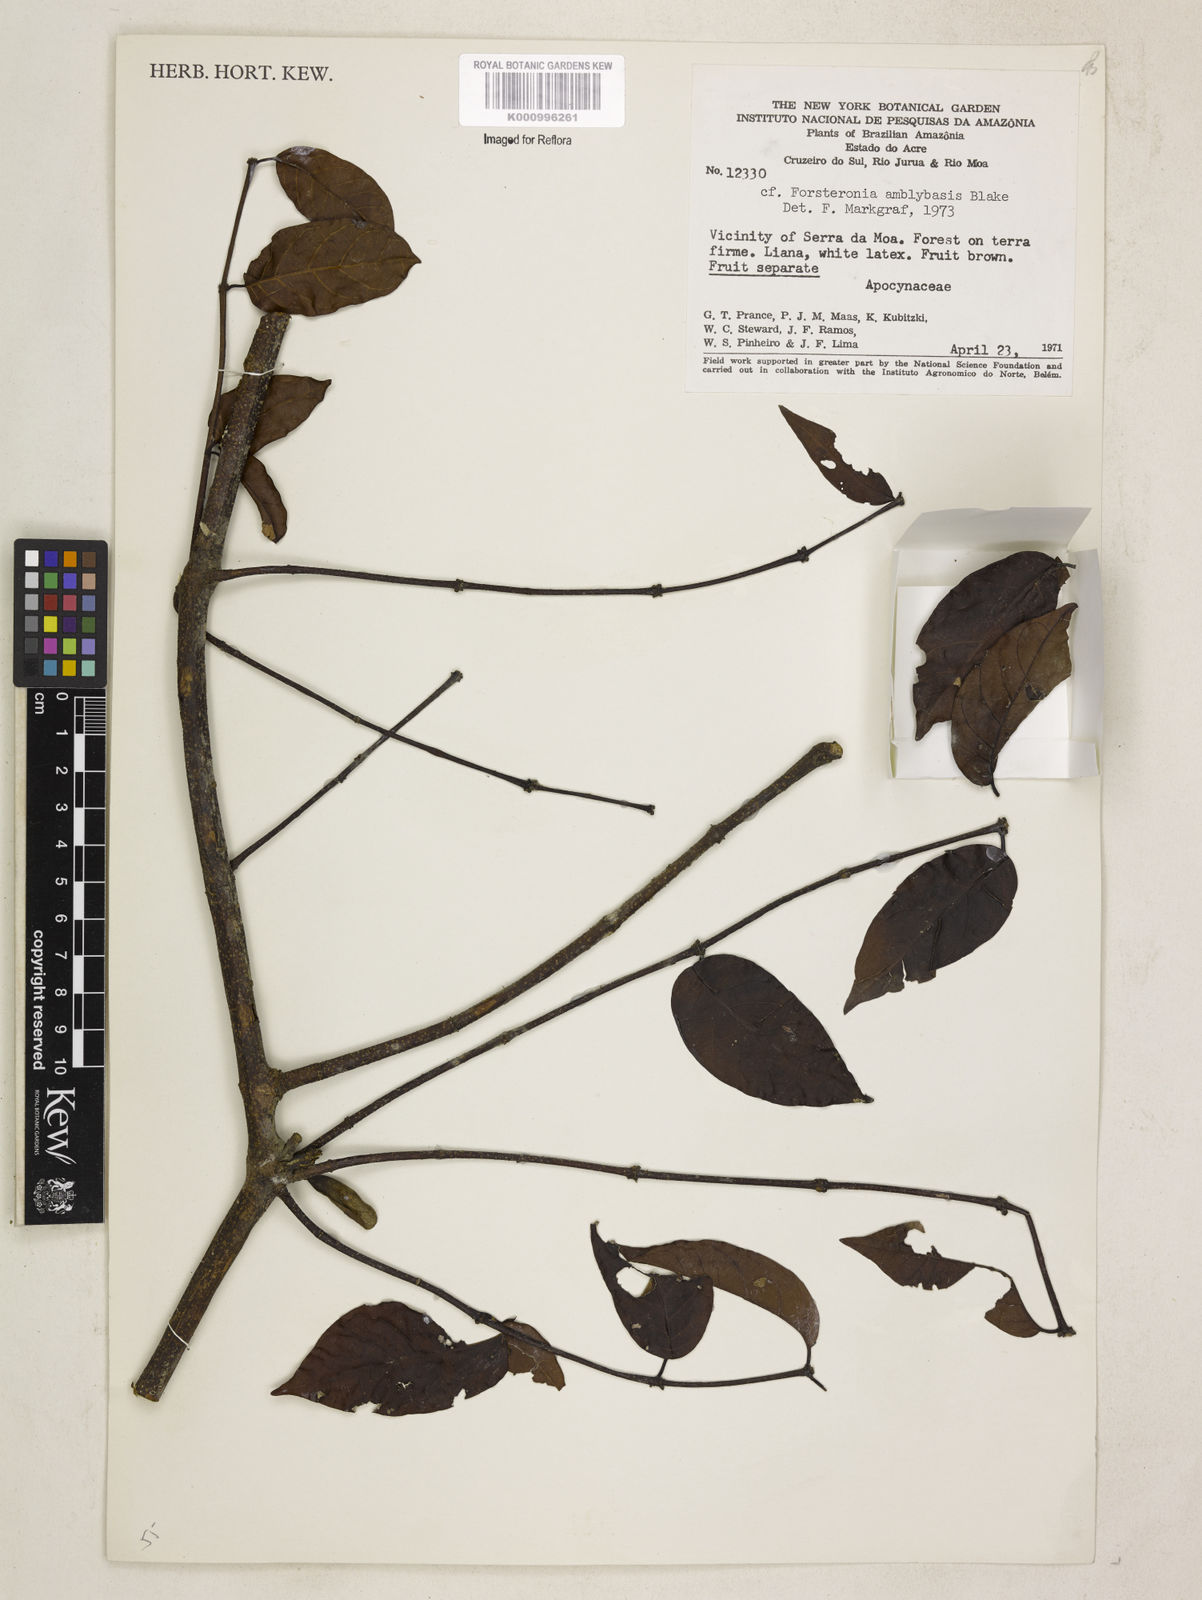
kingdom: Plantae
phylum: Tracheophyta
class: Magnoliopsida
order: Gentianales
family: Apocynaceae
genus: Forsteronia
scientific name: Forsteronia amblybasis
